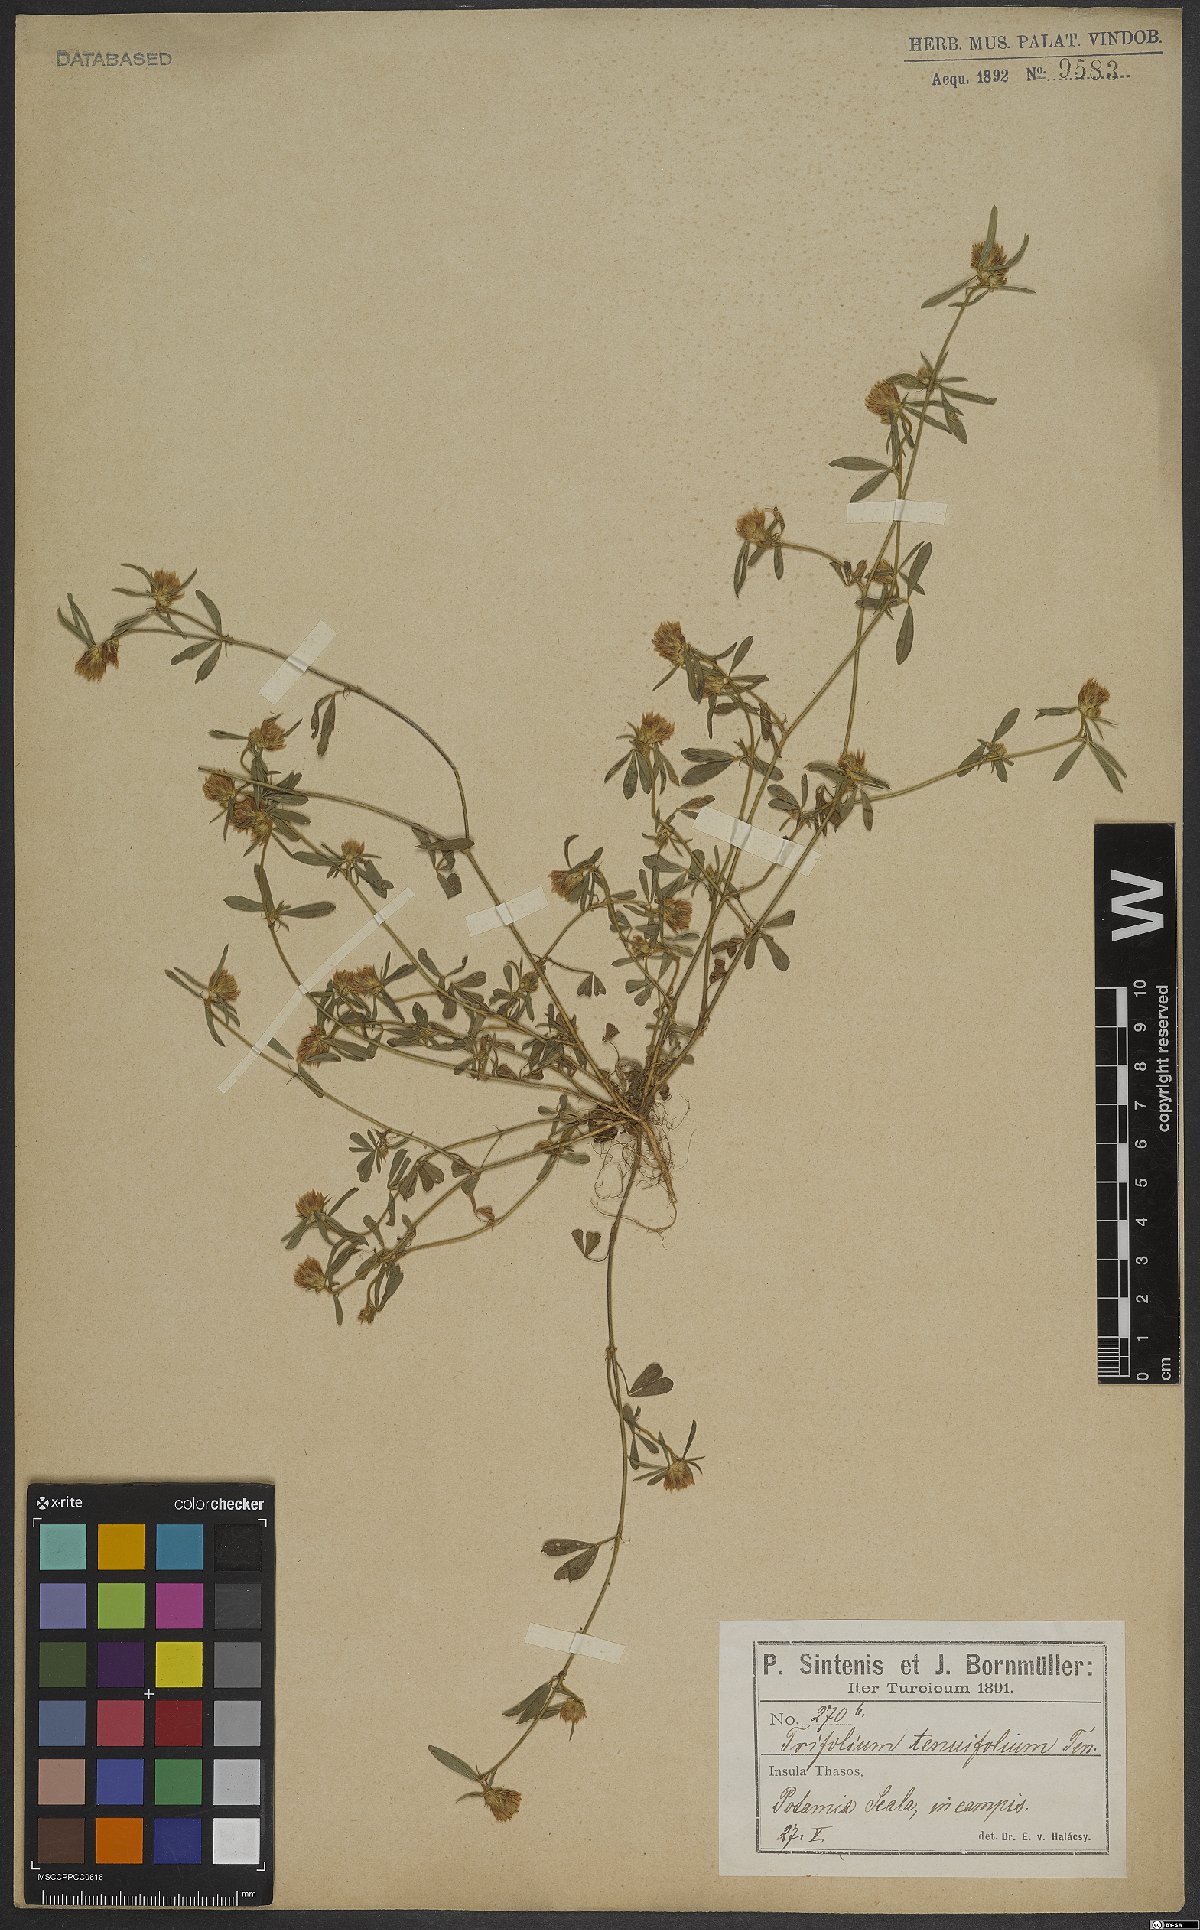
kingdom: Plantae
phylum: Tracheophyta
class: Magnoliopsida
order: Fabales
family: Fabaceae
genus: Trifolium
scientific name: Trifolium tenuifolium
